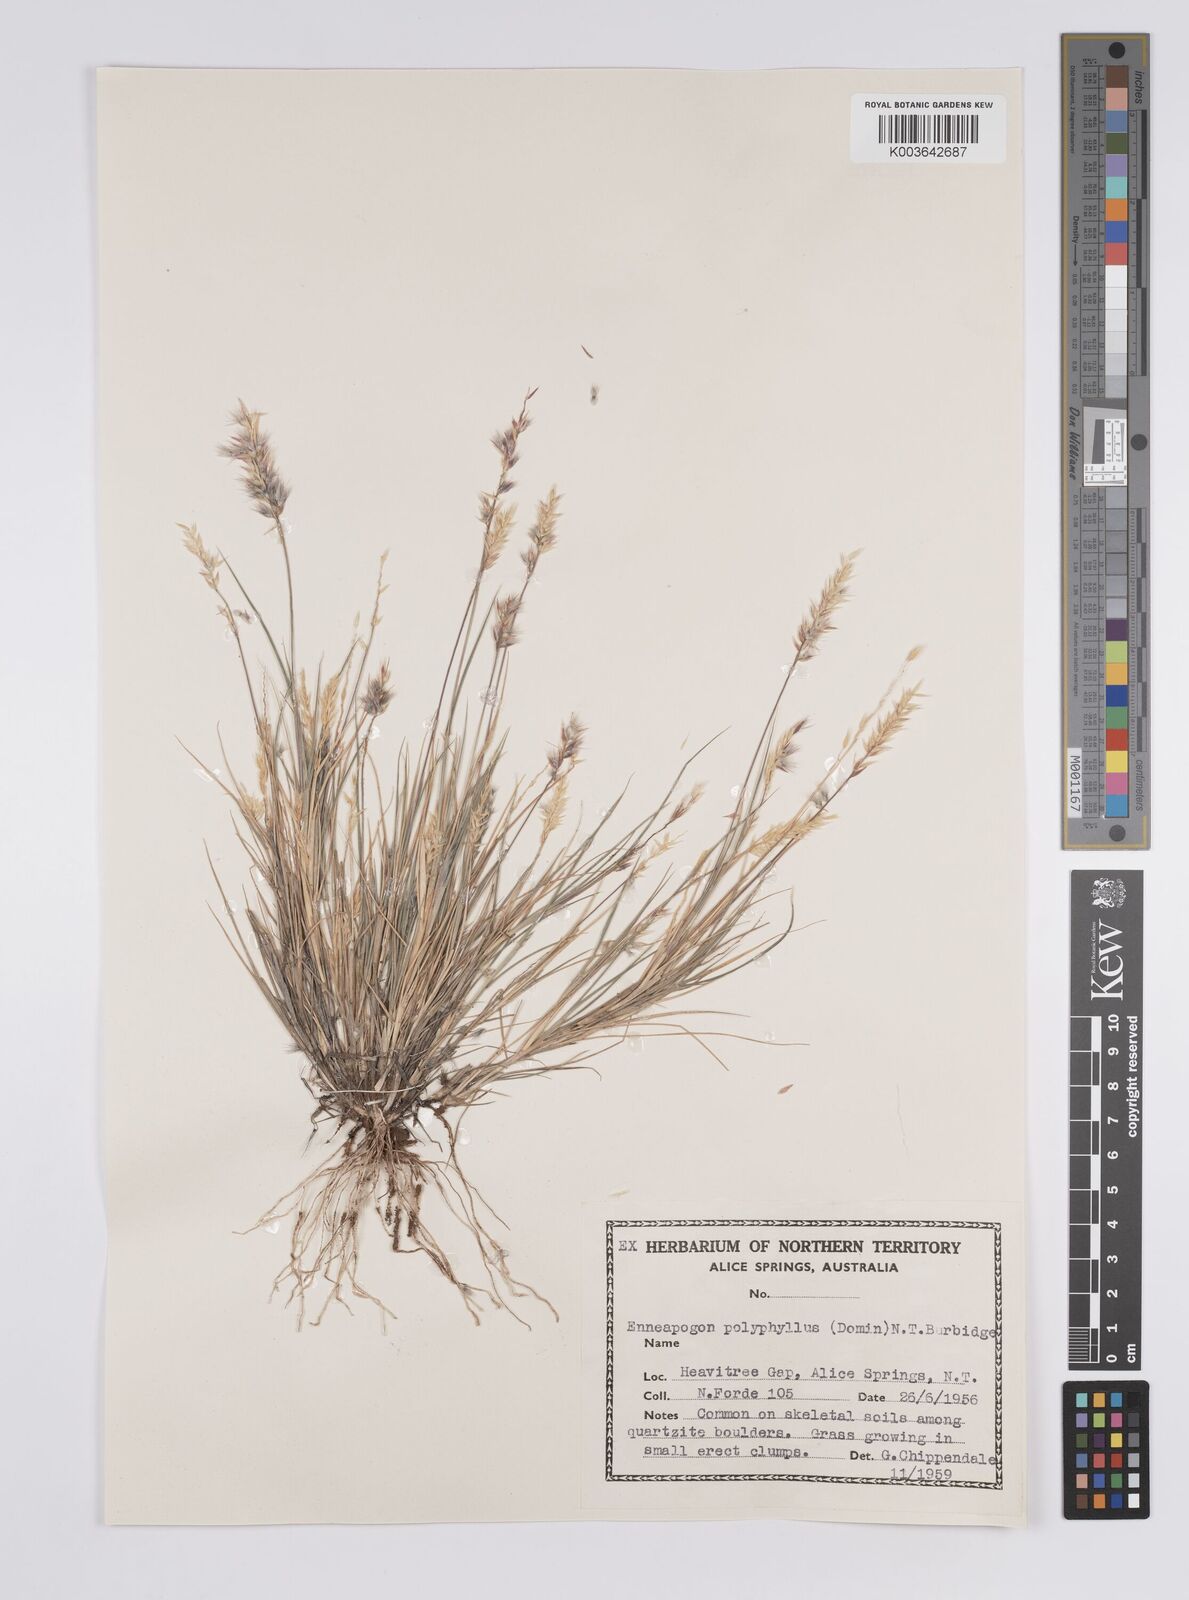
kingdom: Plantae
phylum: Tracheophyta
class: Liliopsida
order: Poales
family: Poaceae
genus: Enneapogon
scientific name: Enneapogon polyphyllus
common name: Leafy nineawn
